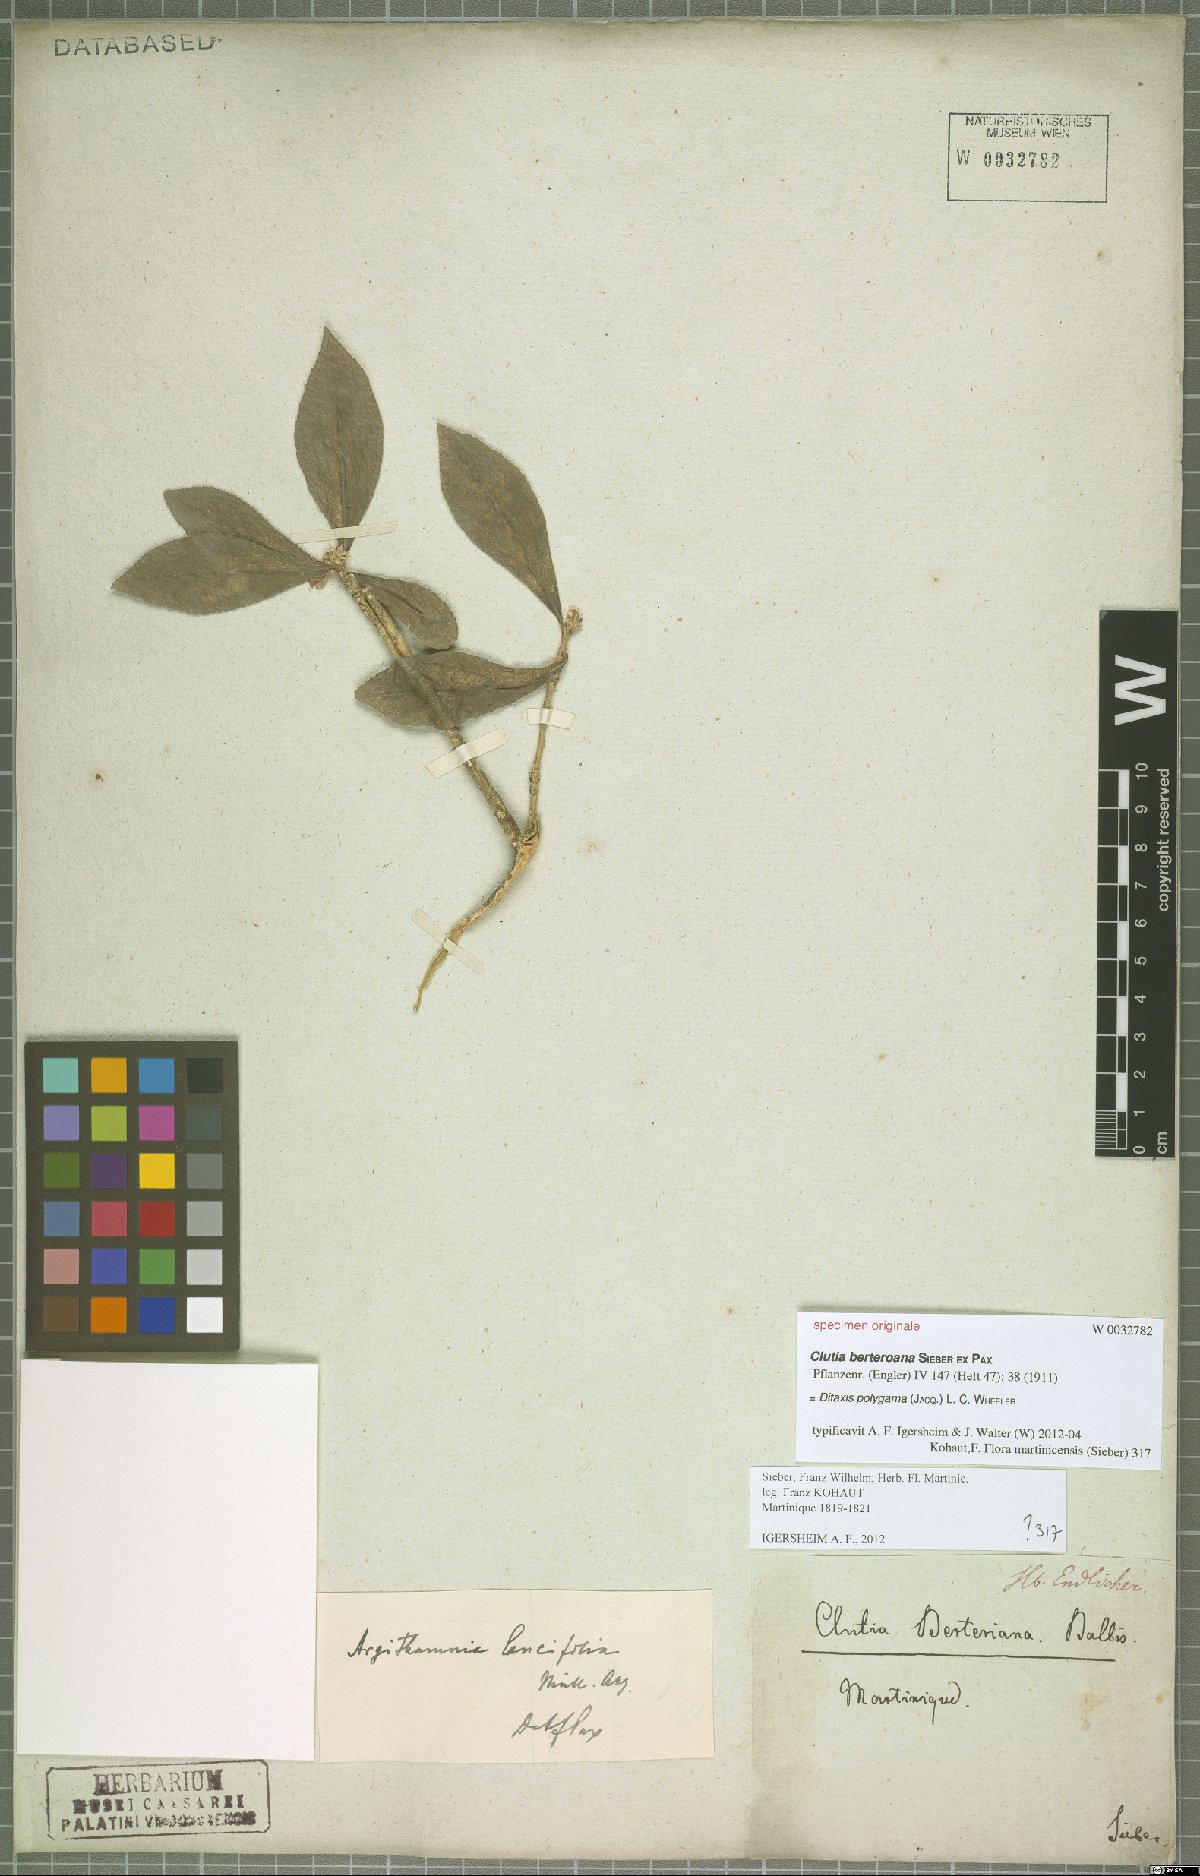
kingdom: Plantae
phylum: Tracheophyta
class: Magnoliopsida
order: Malpighiales
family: Euphorbiaceae
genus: Ditaxis
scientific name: Ditaxis polygama
